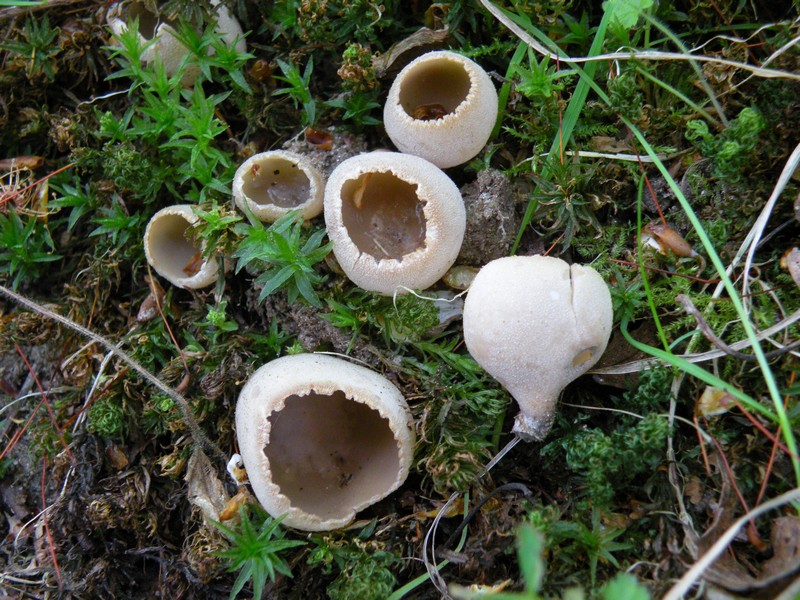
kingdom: Fungi
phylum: Ascomycota
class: Pezizomycetes
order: Pezizales
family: Pyronemataceae
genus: Tarzetta
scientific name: Tarzetta cupularis
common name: gulbrun pokalbæger
